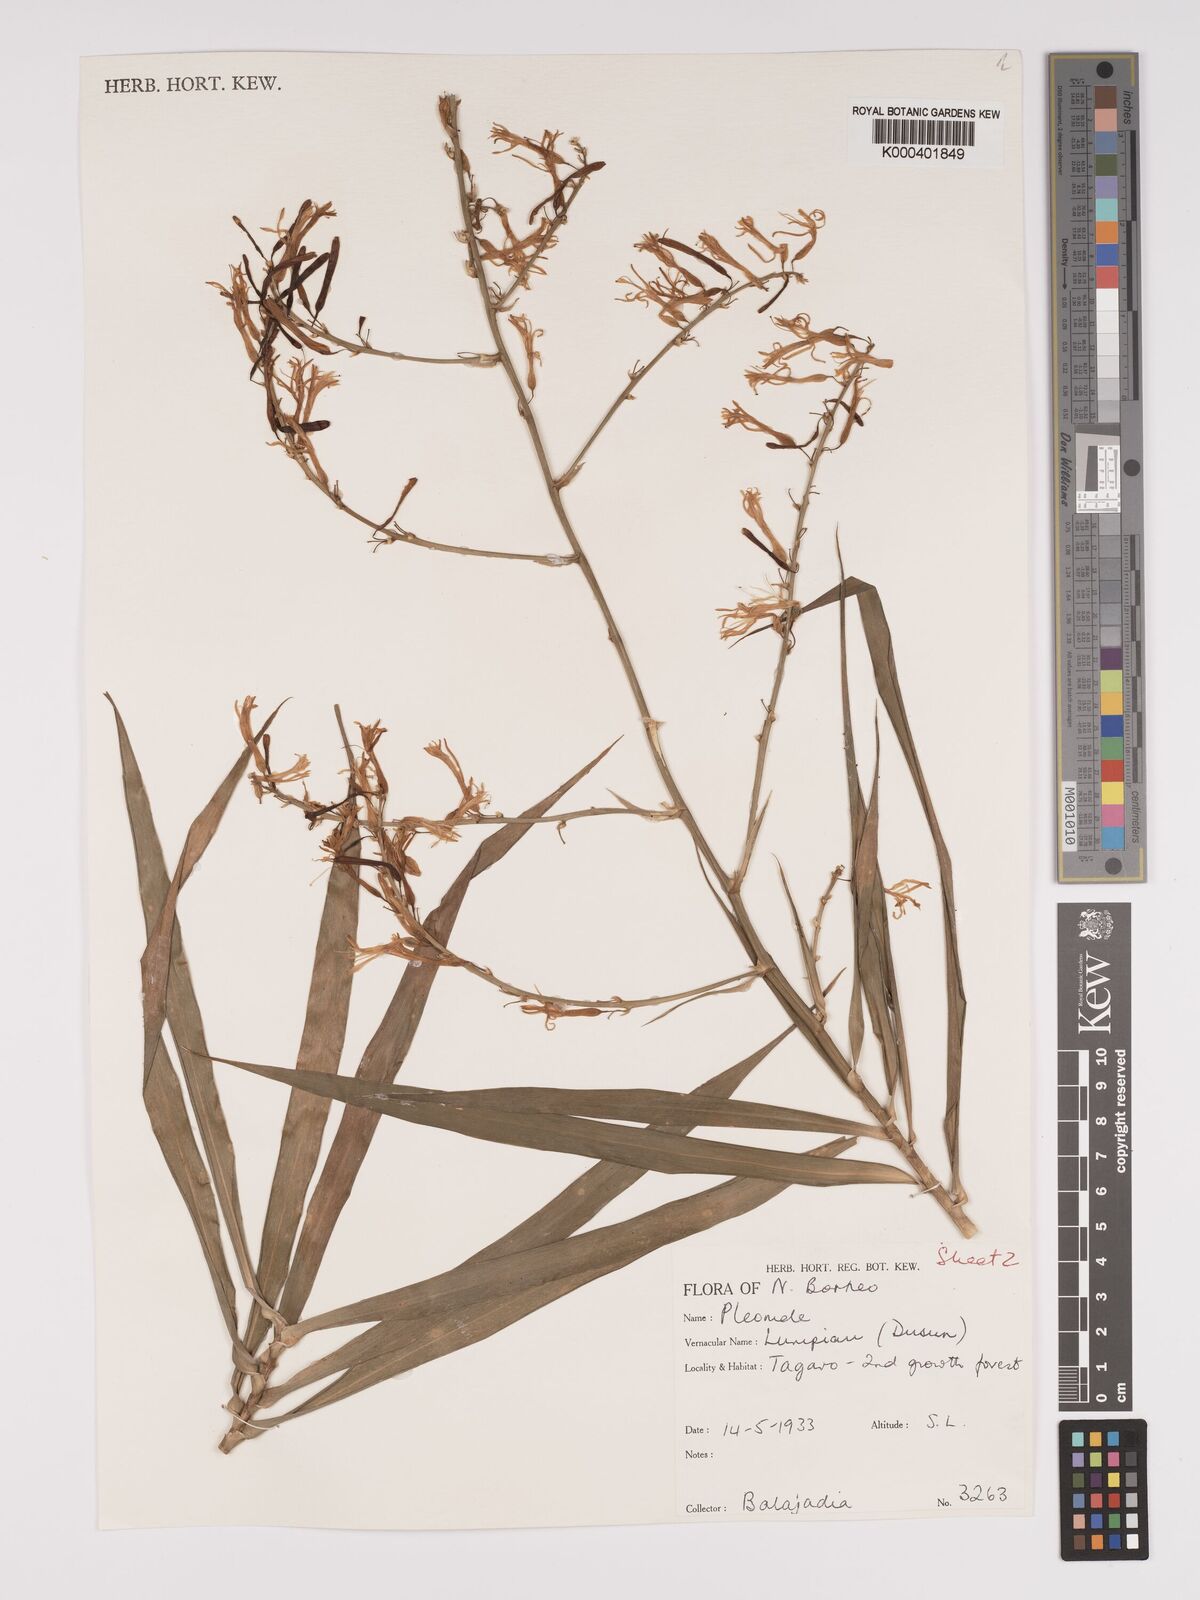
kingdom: Plantae
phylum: Tracheophyta
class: Liliopsida
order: Asparagales
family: Asparagaceae
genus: Dracaena
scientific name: Dracaena
